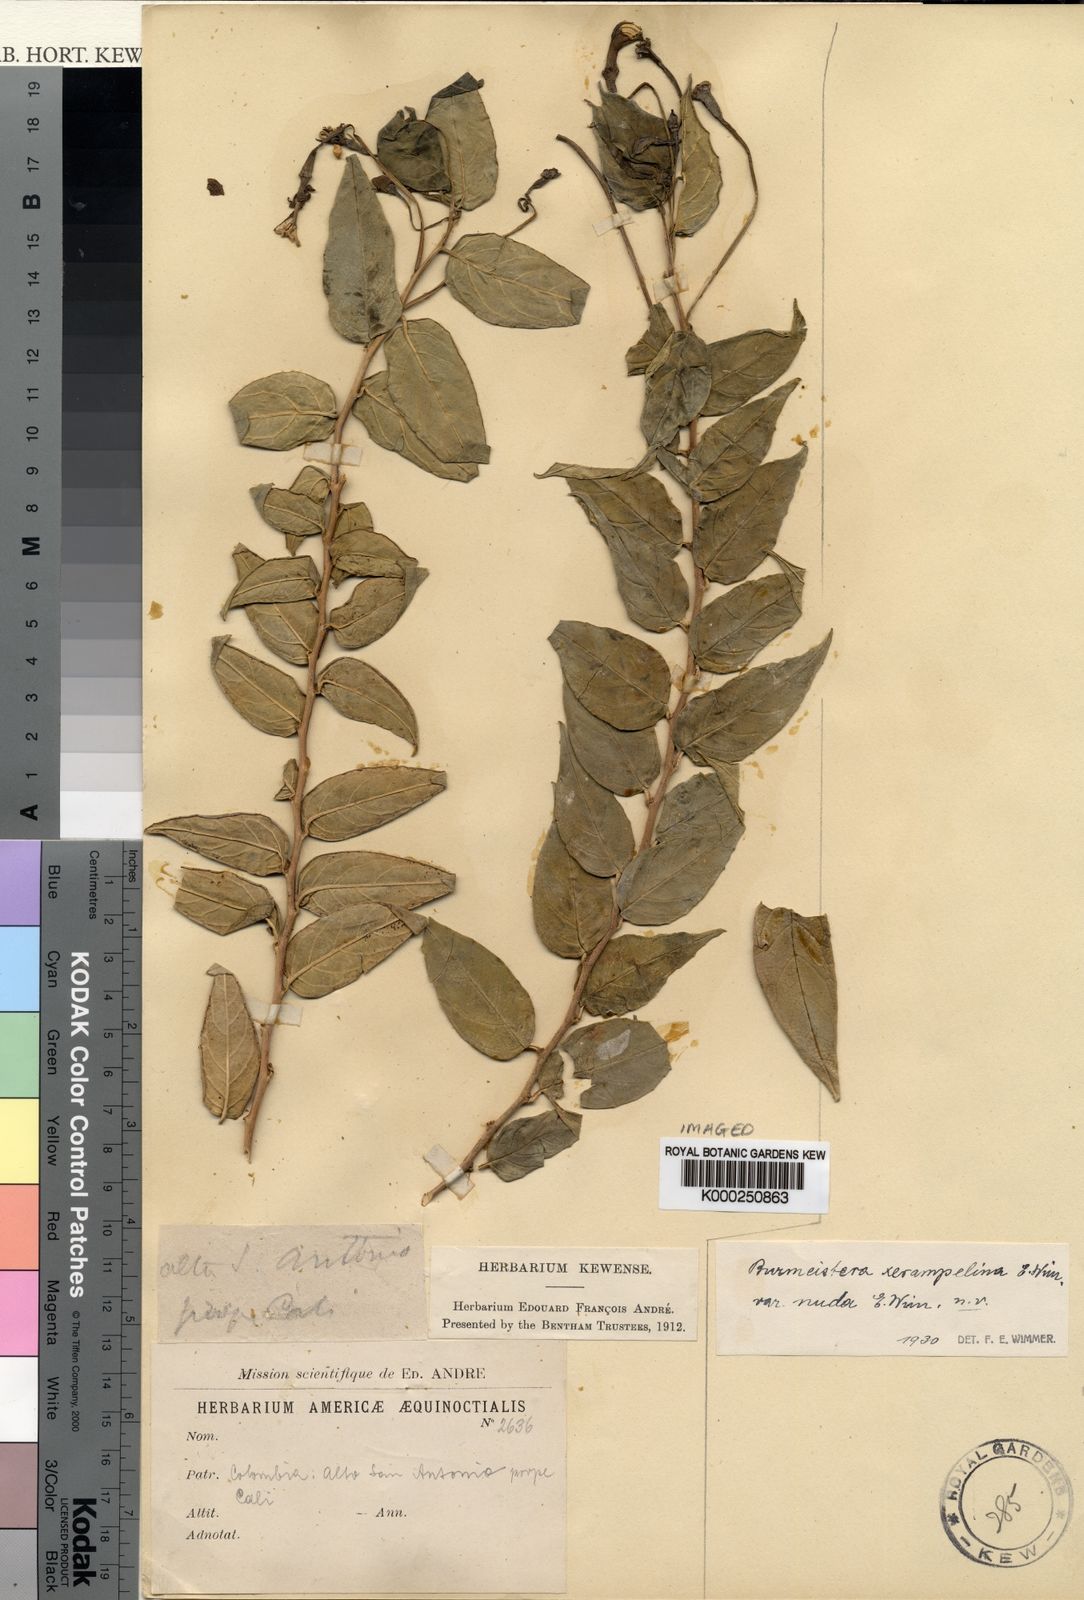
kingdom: Plantae
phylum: Tracheophyta
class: Magnoliopsida
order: Asterales
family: Campanulaceae
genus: Burmeistera
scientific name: Burmeistera nuda
